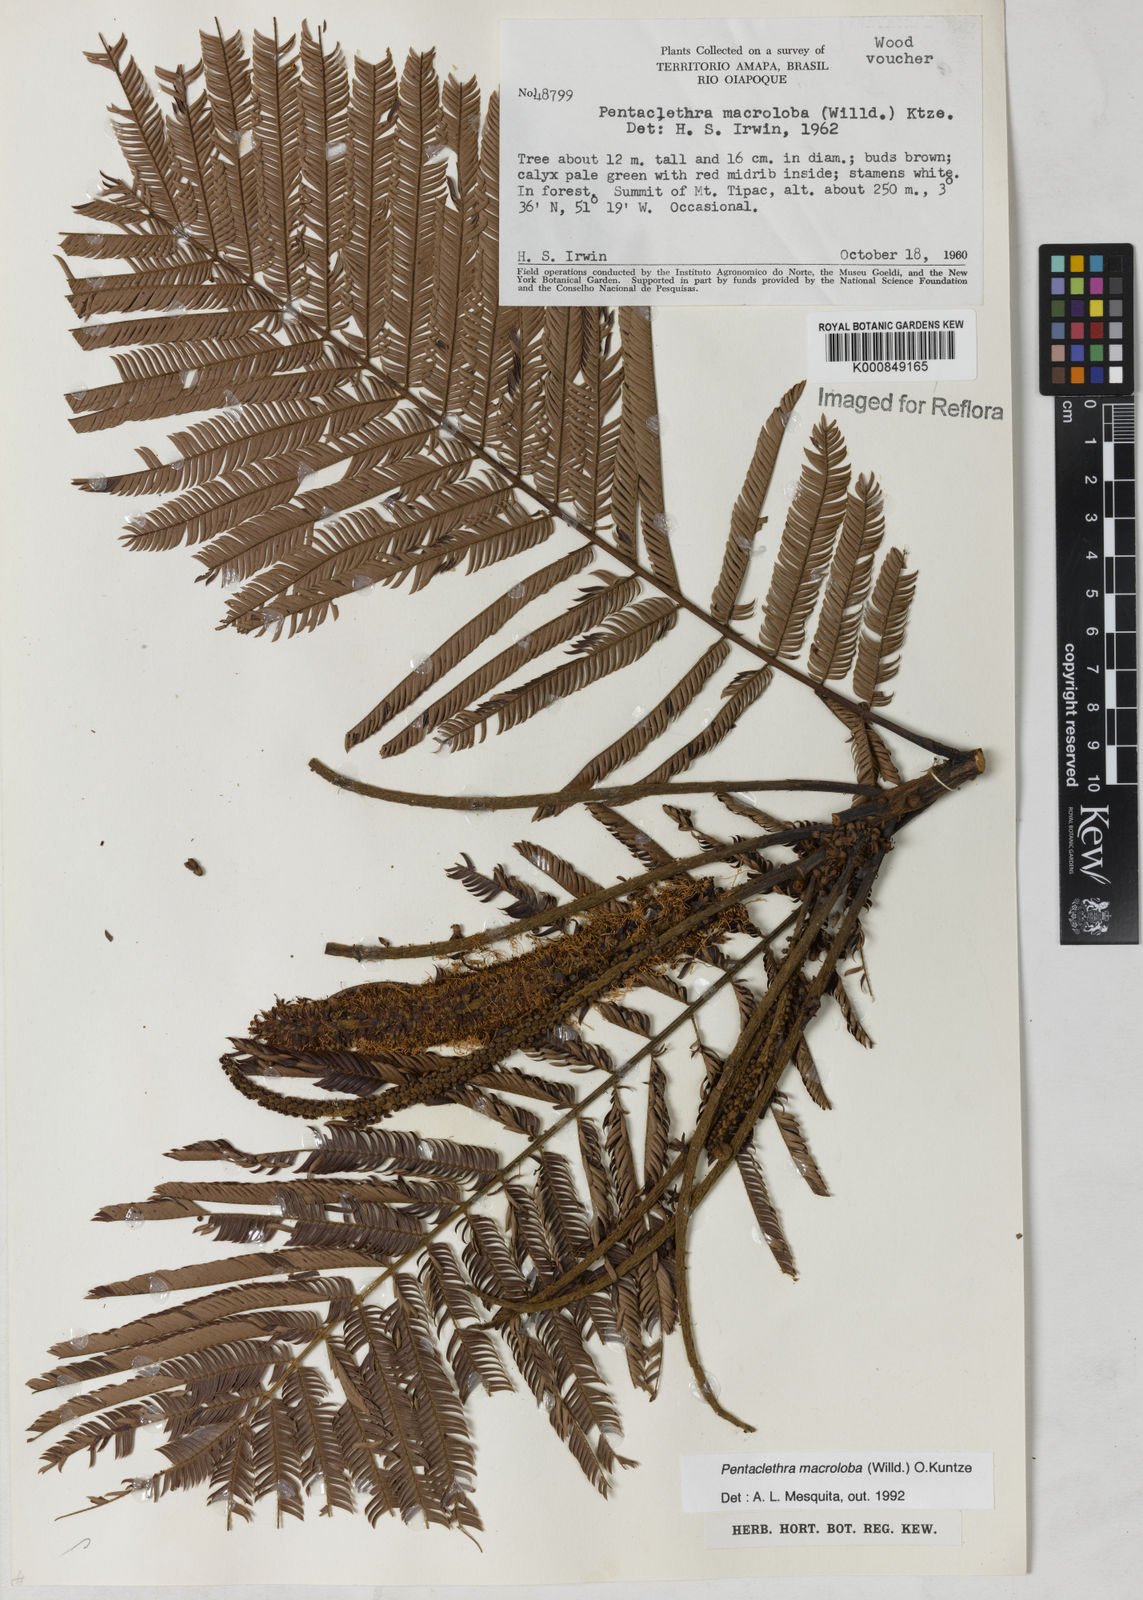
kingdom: Plantae
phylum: Tracheophyta
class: Magnoliopsida
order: Fabales
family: Fabaceae
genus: Pentaclethra
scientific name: Pentaclethra macroloba
